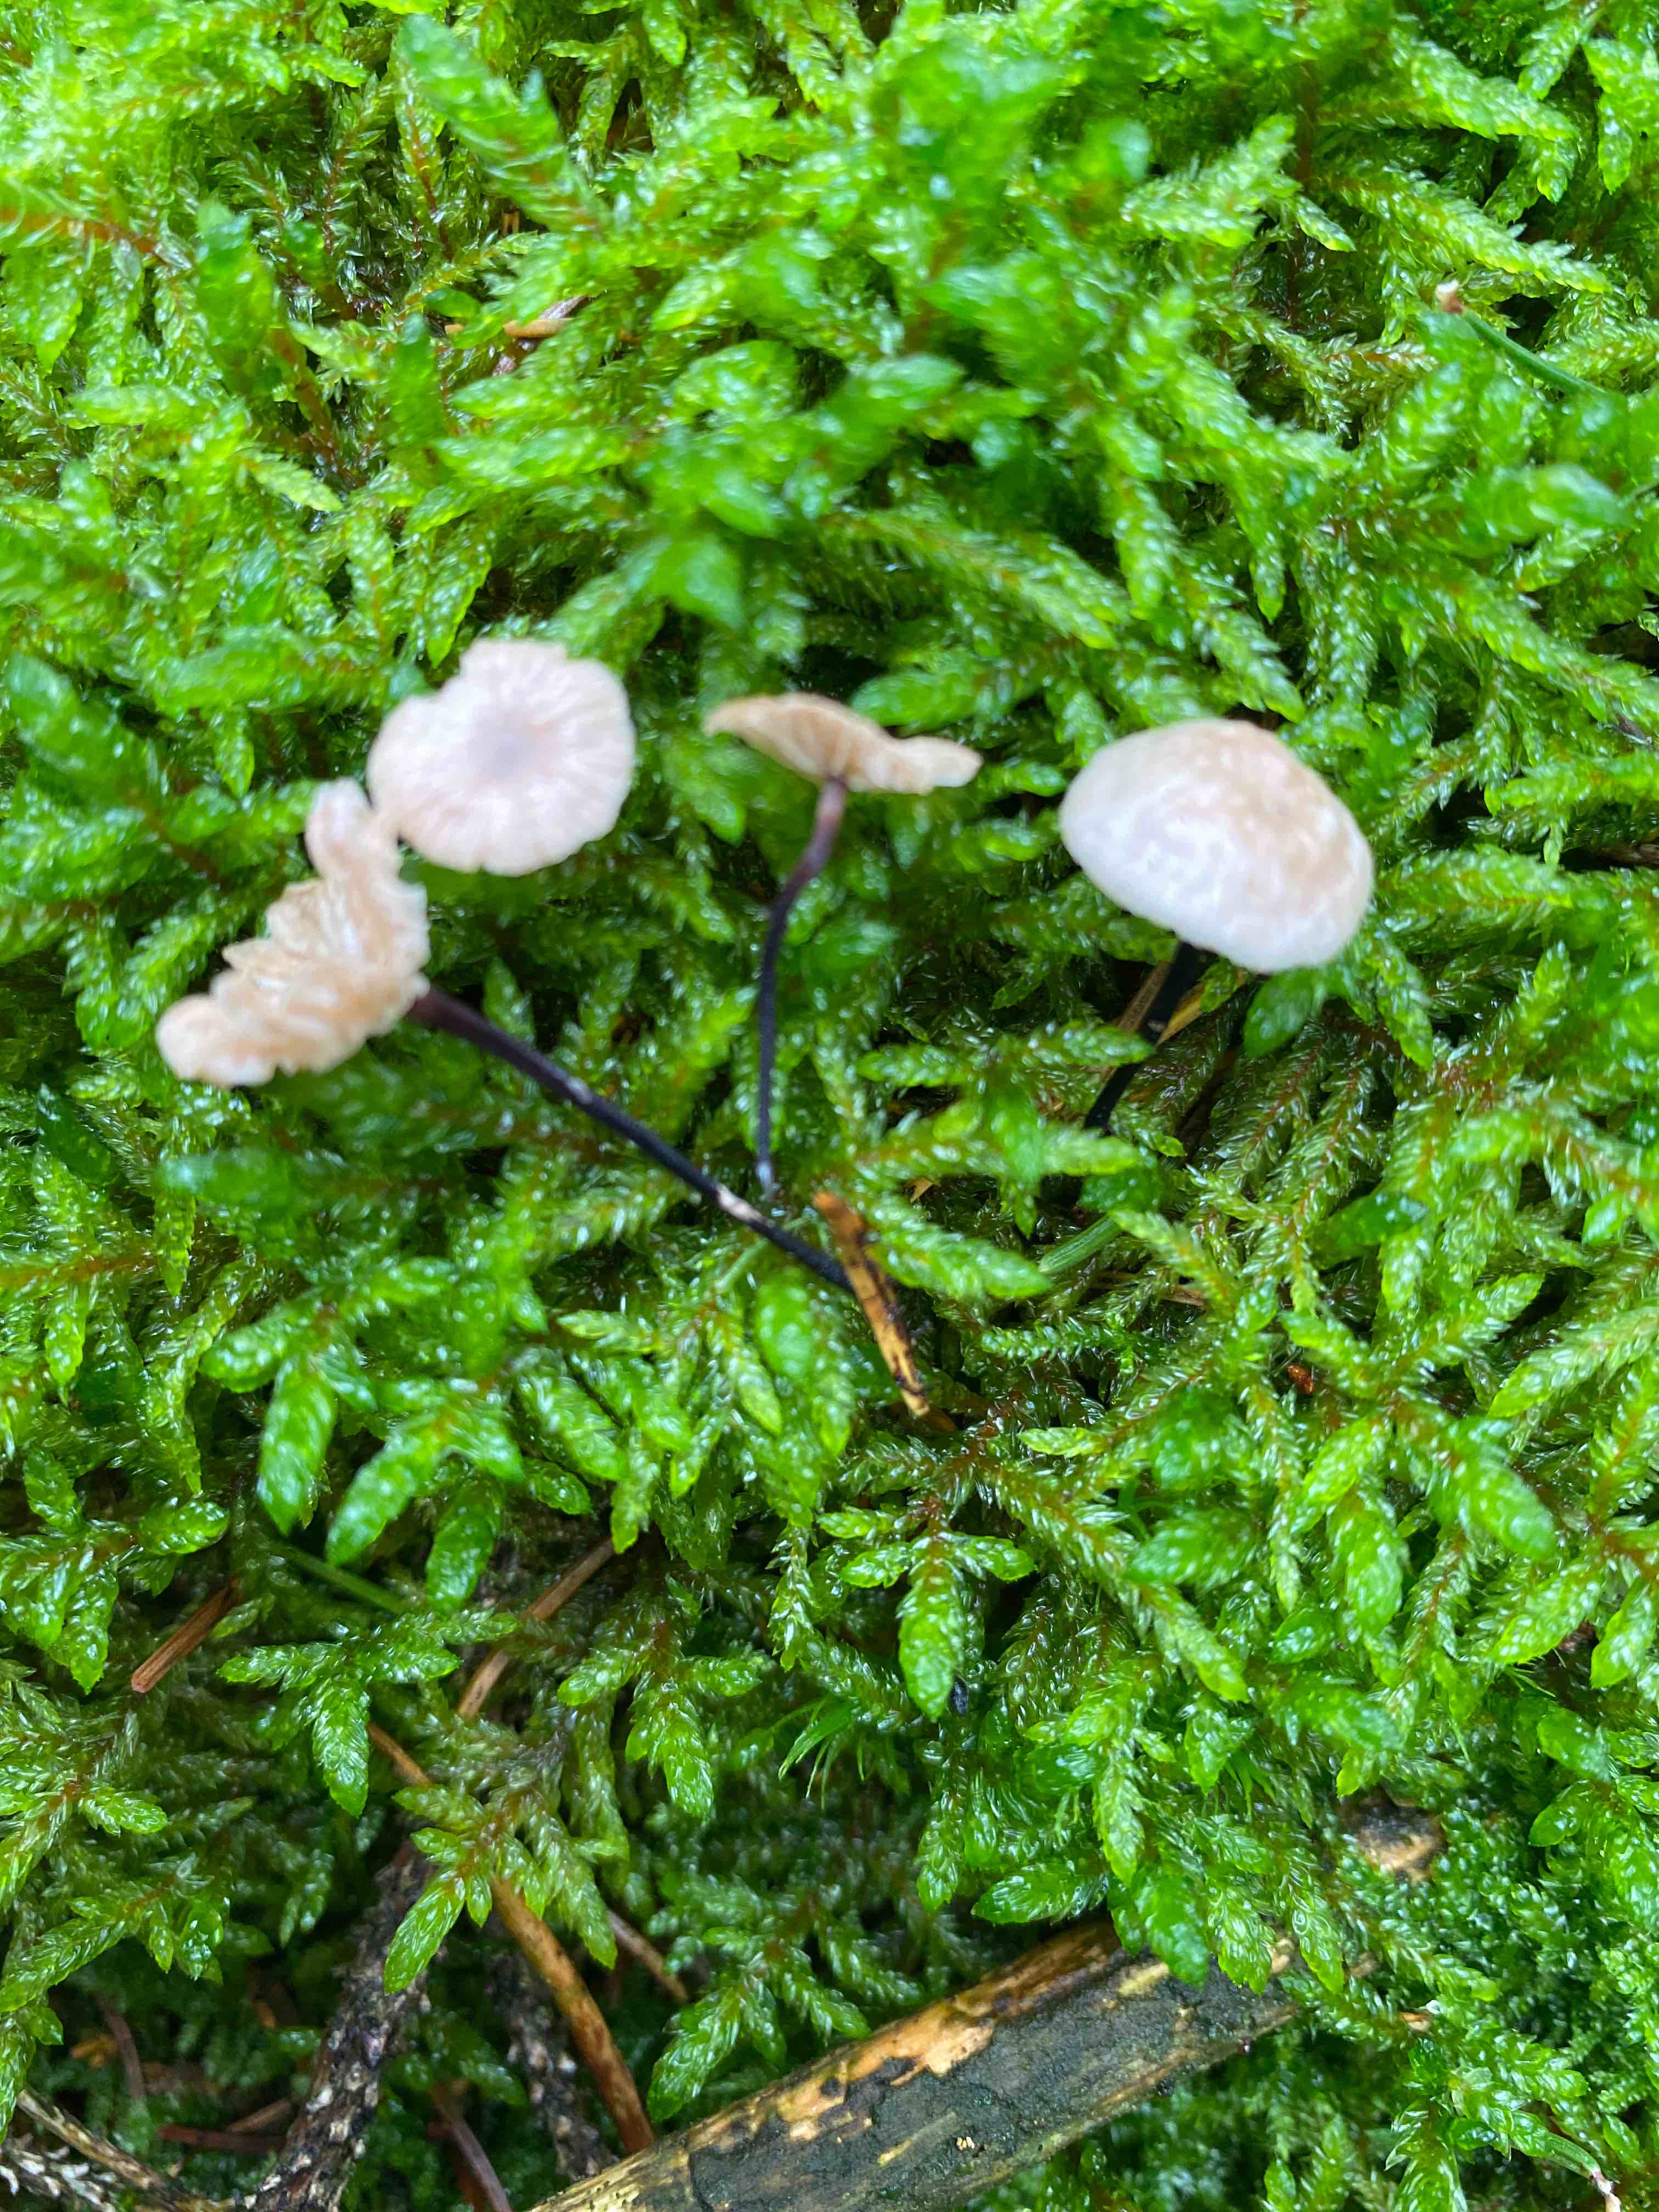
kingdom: Fungi
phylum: Basidiomycota
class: Agaricomycetes
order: Agaricales
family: Omphalotaceae
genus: Paragymnopus
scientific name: Paragymnopus perforans
